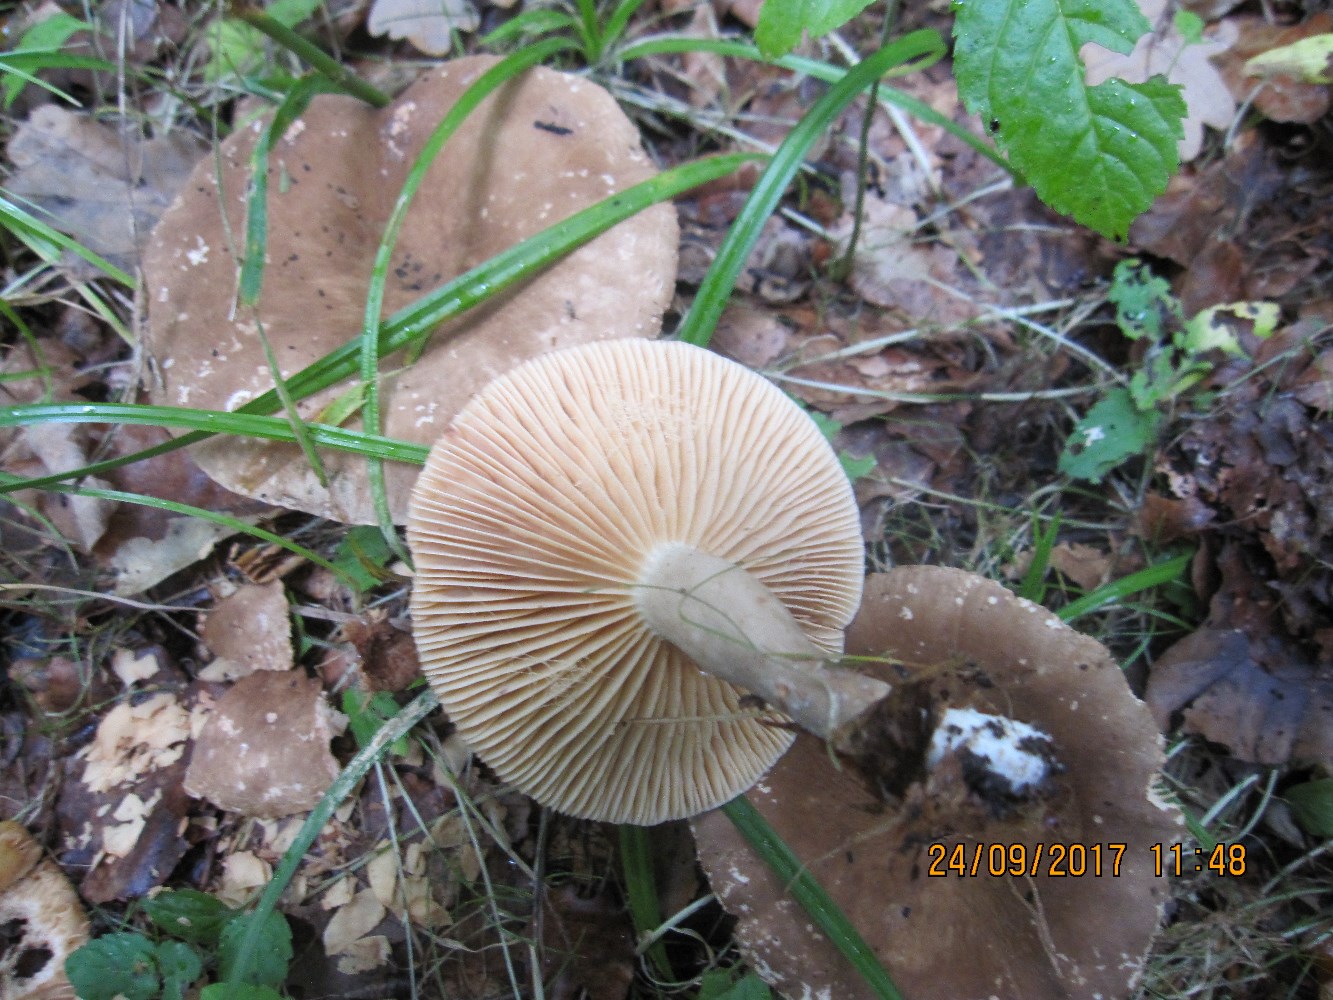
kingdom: Fungi
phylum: Basidiomycota
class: Agaricomycetes
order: Russulales
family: Russulaceae
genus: Lactarius
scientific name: Lactarius romagnesii
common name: fjernbladet mælkehat
